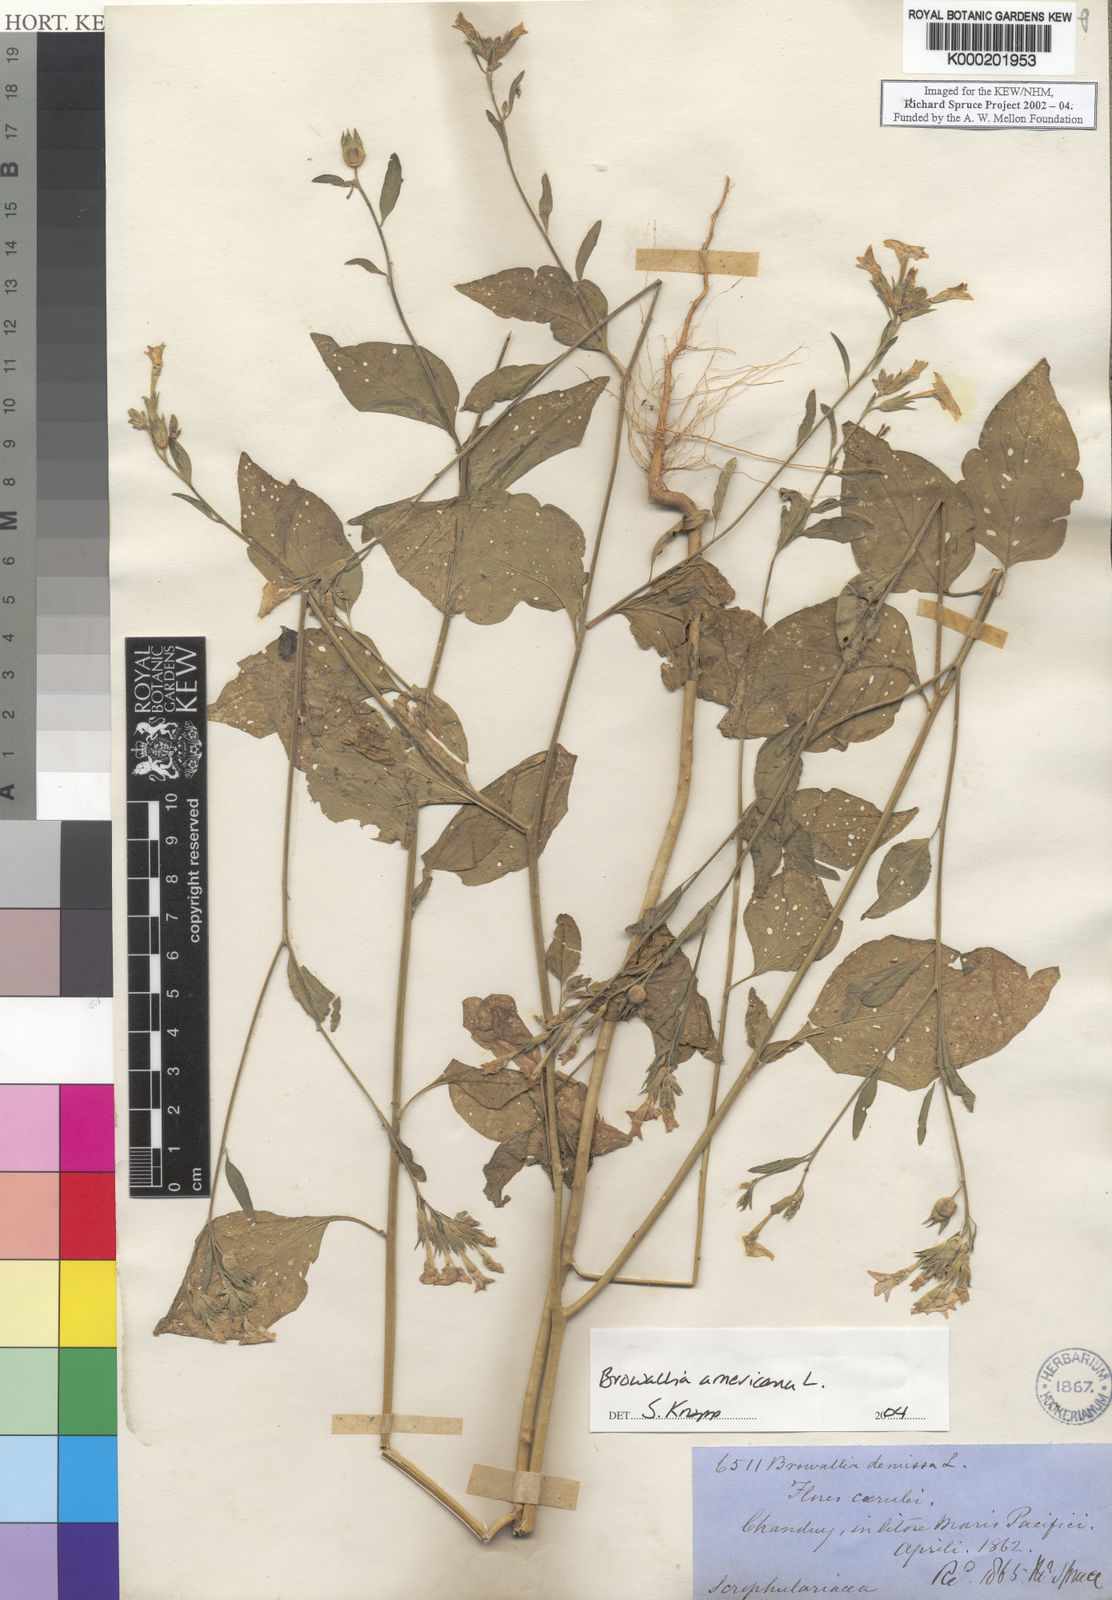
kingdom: Plantae
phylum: Tracheophyta
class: Magnoliopsida
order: Solanales
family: Solanaceae
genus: Browallia
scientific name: Browallia americana
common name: Jamaican forget-me-not
